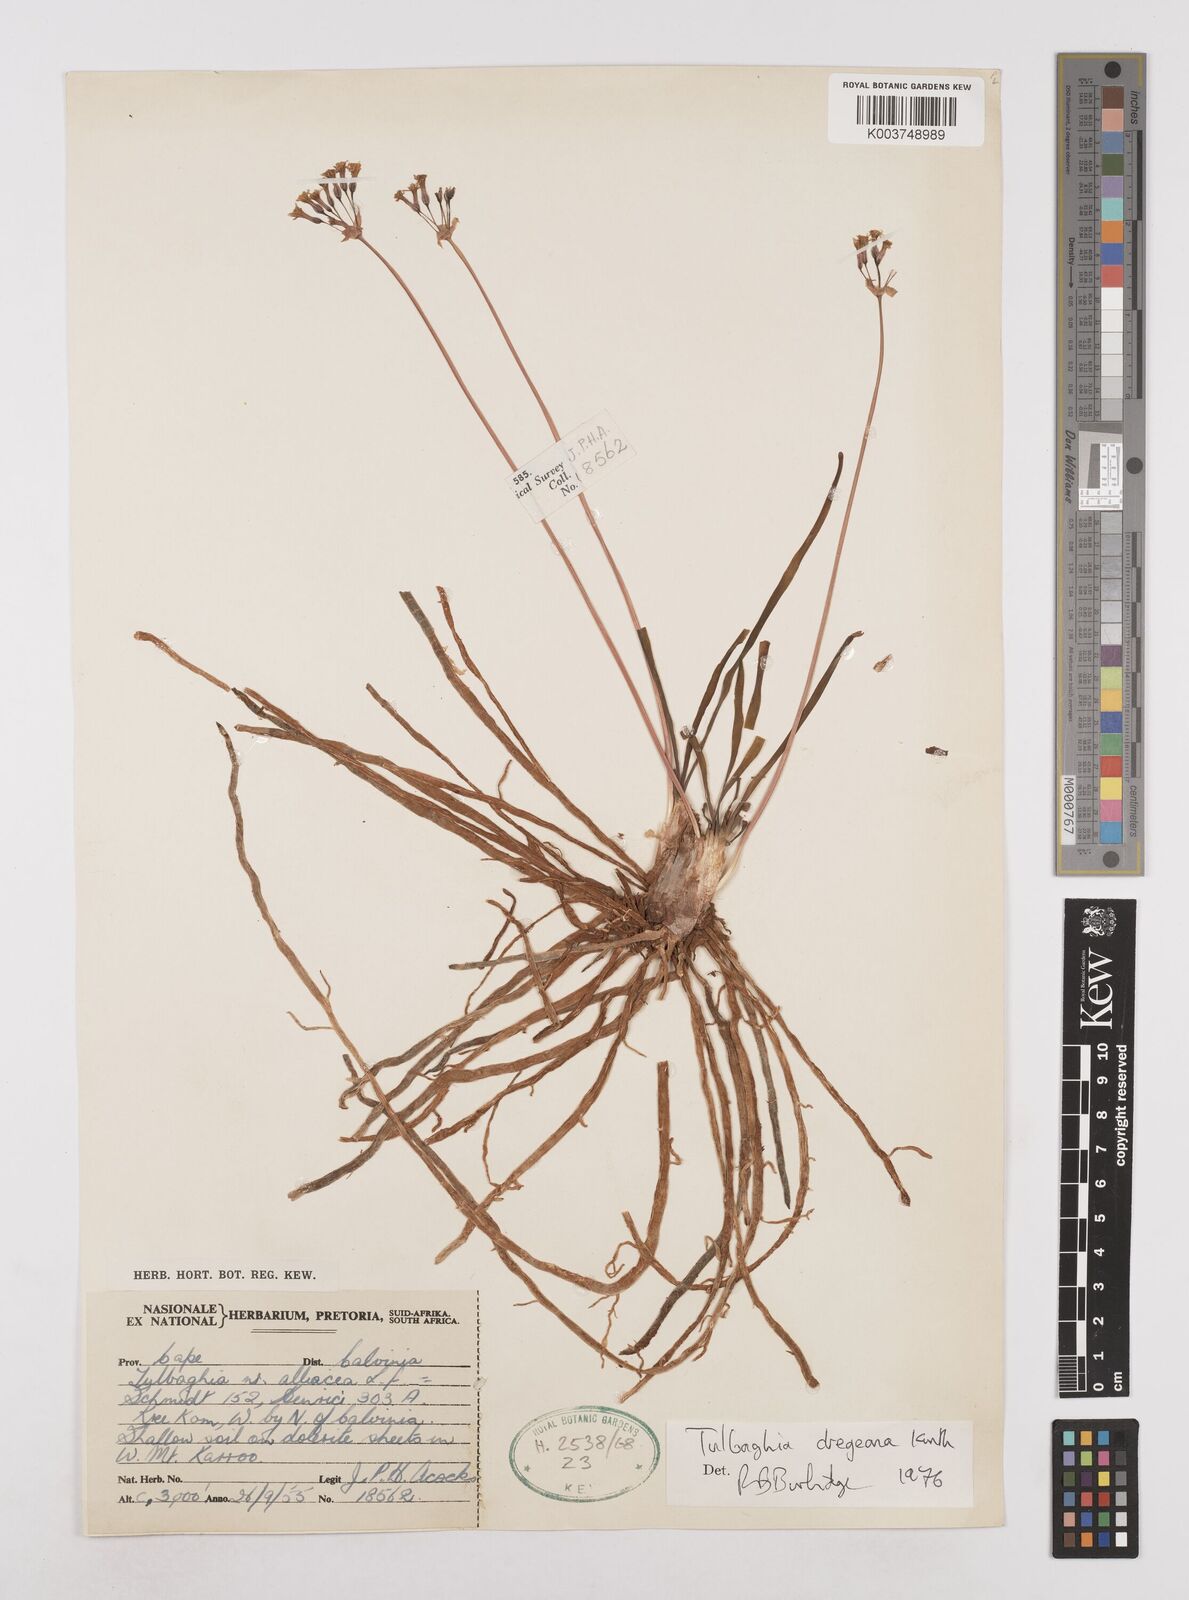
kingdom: Plantae
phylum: Tracheophyta
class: Liliopsida
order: Asparagales
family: Amaryllidaceae
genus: Tulbaghia
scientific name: Tulbaghia dregeana
